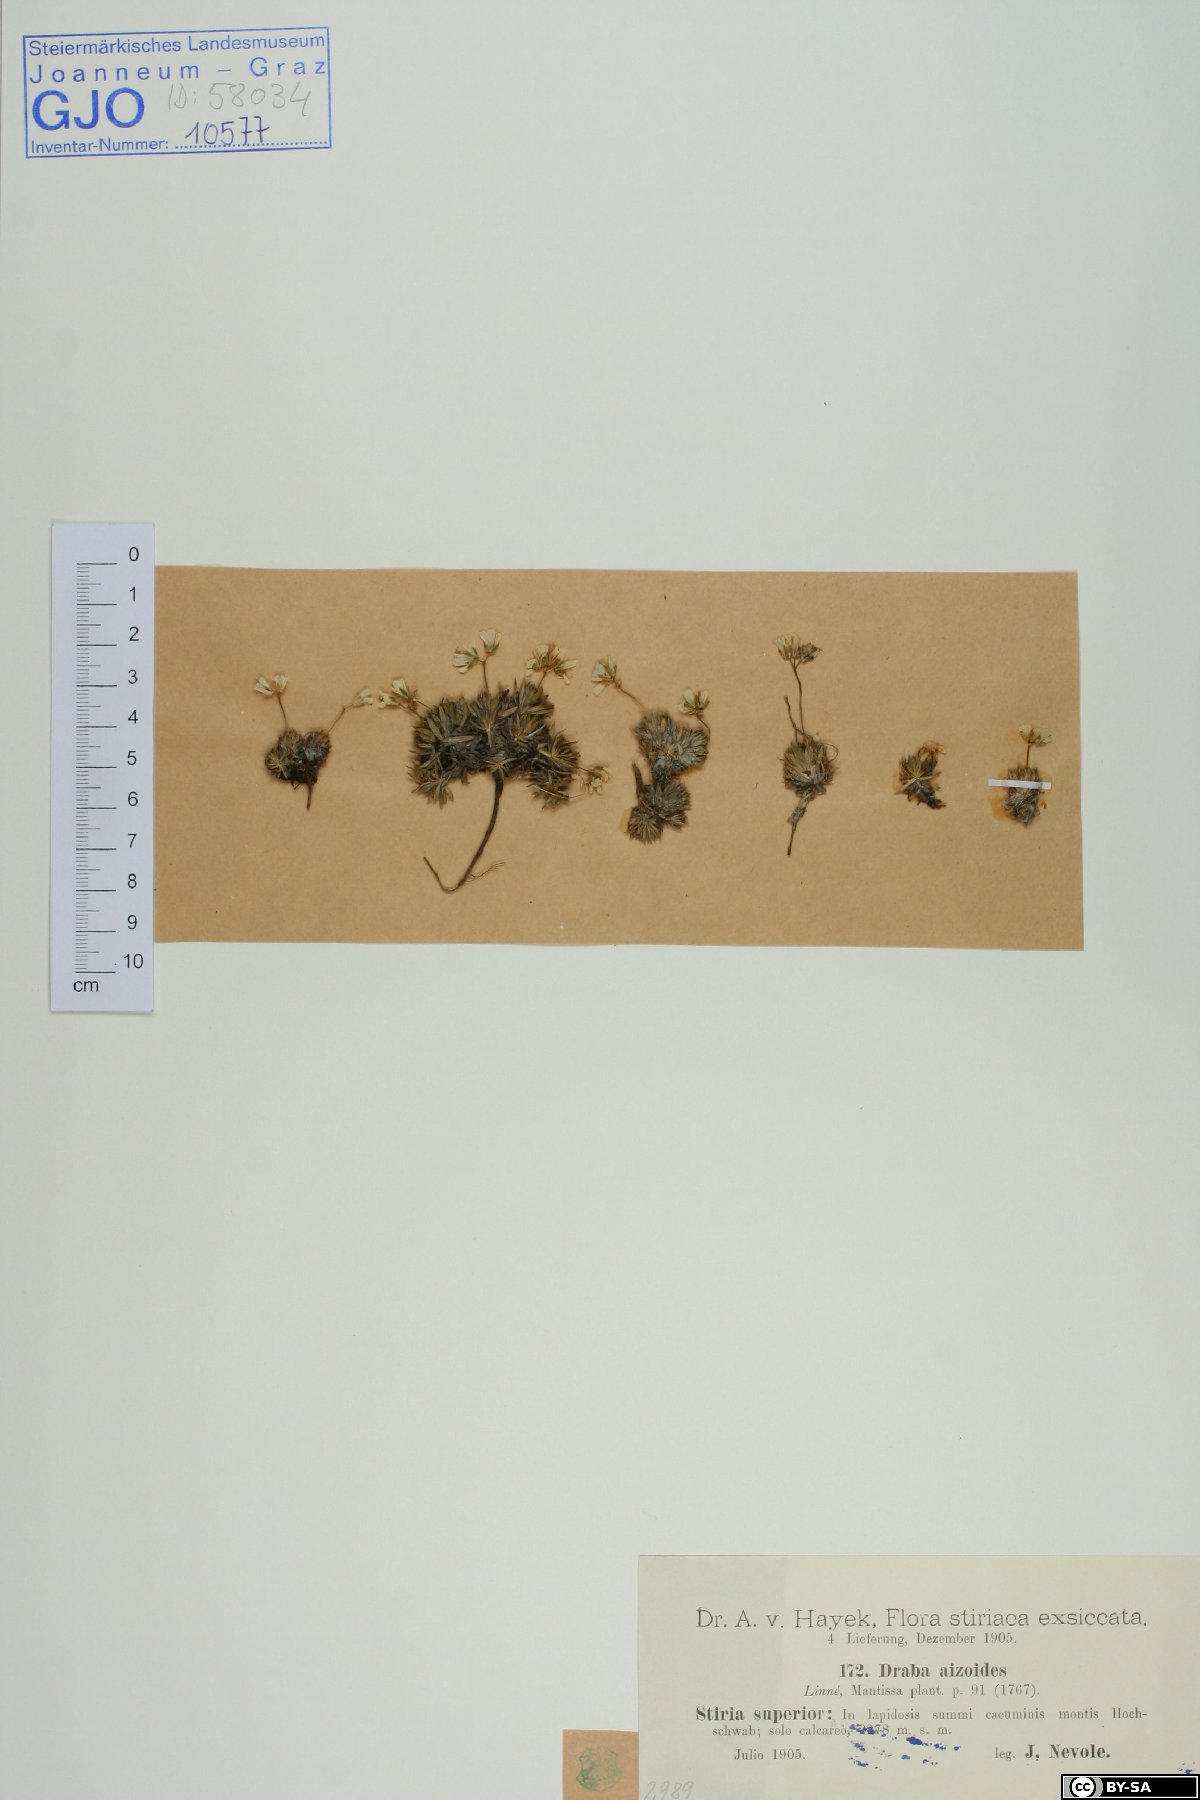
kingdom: Plantae
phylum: Tracheophyta
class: Magnoliopsida
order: Brassicales
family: Brassicaceae
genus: Draba
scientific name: Draba aizoides
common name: Yellow whitlowgrass
